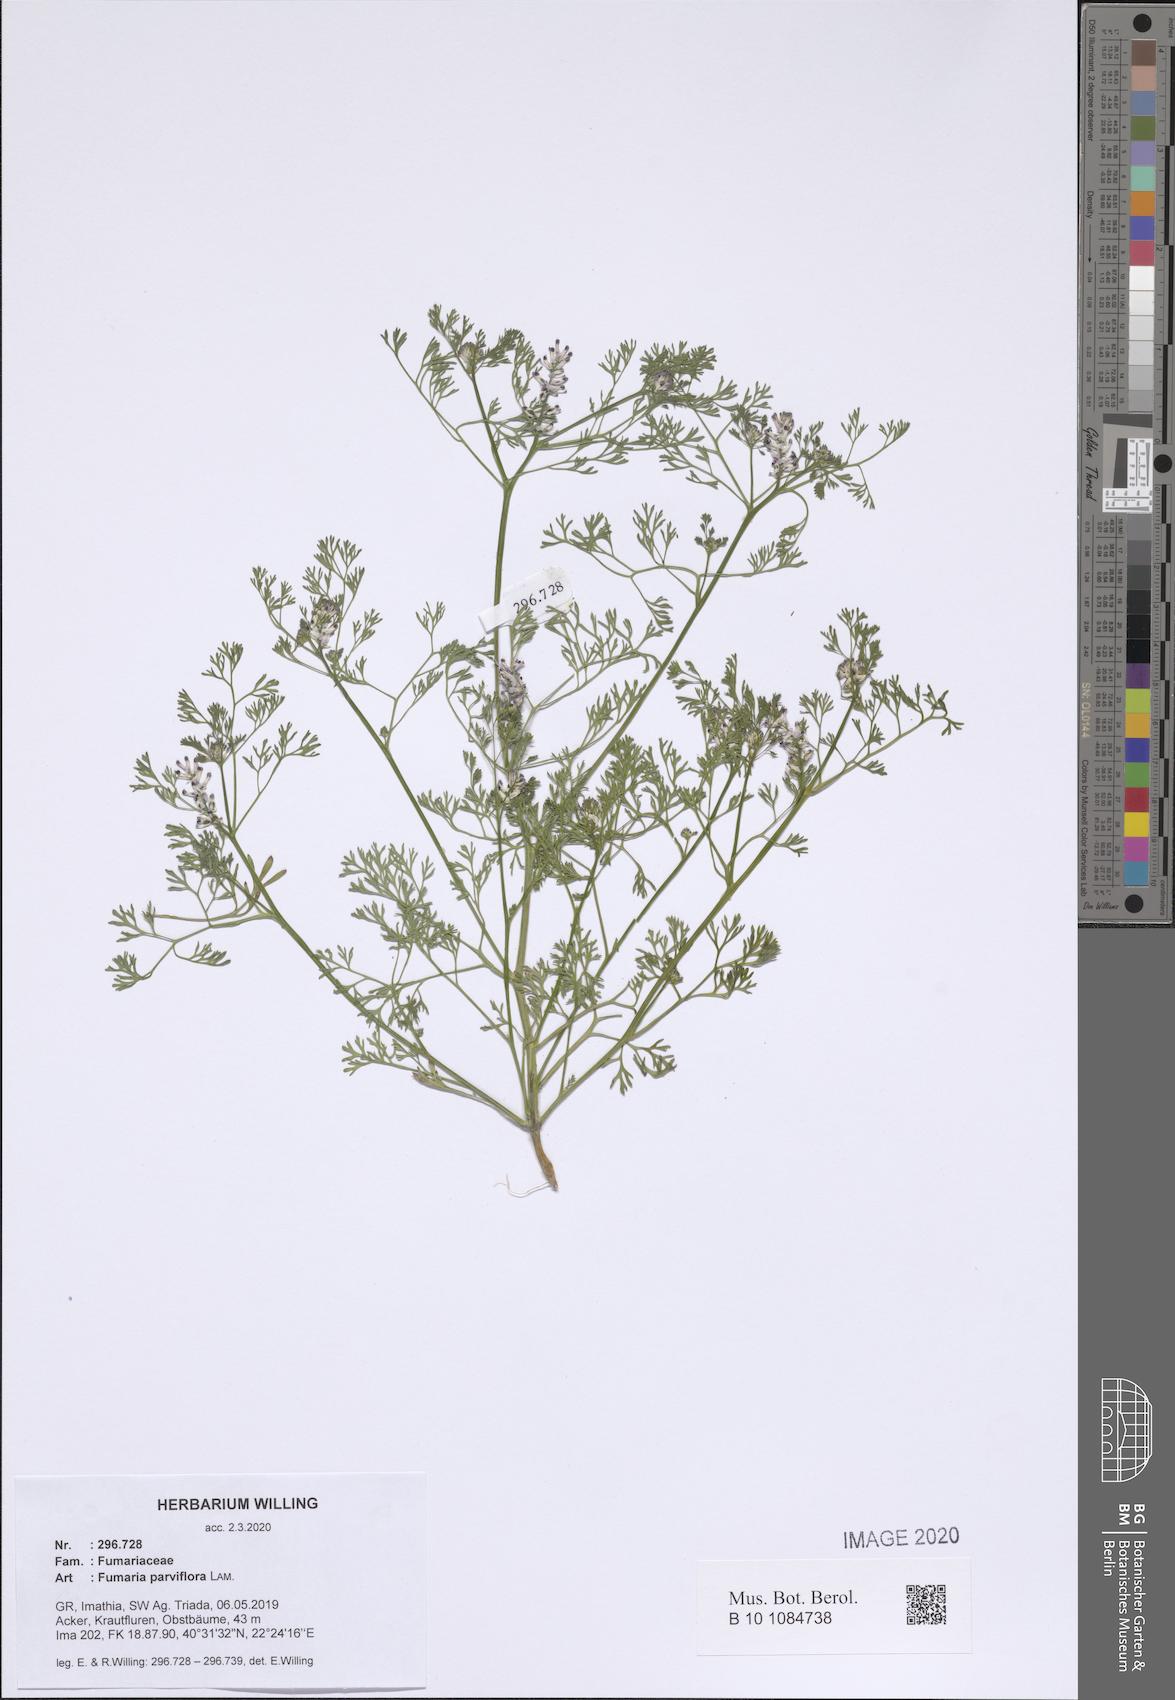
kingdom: Plantae
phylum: Tracheophyta
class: Magnoliopsida
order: Ranunculales
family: Papaveraceae
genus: Fumaria
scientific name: Fumaria parviflora
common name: Fine-leaved fumitory
